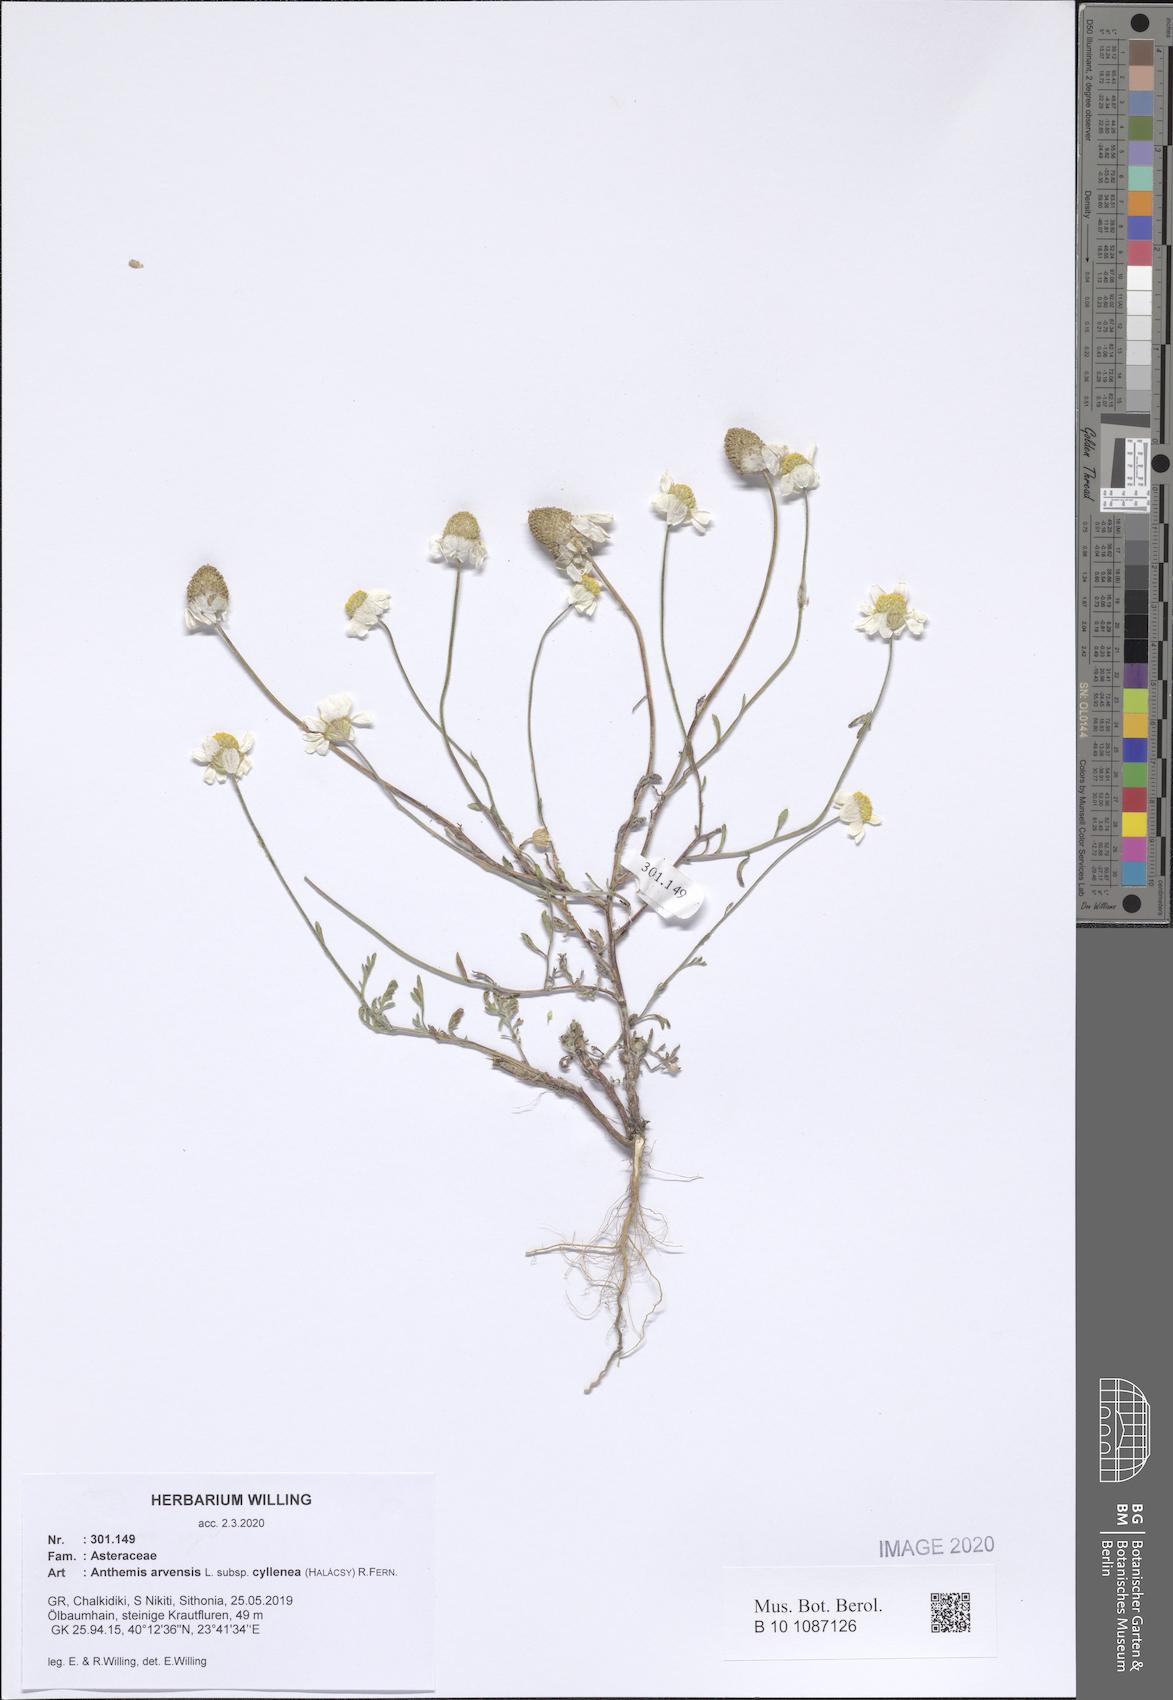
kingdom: Plantae
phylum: Tracheophyta
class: Magnoliopsida
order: Asterales
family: Asteraceae
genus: Anthemis
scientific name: Anthemis arvensis
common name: Corn chamomile
